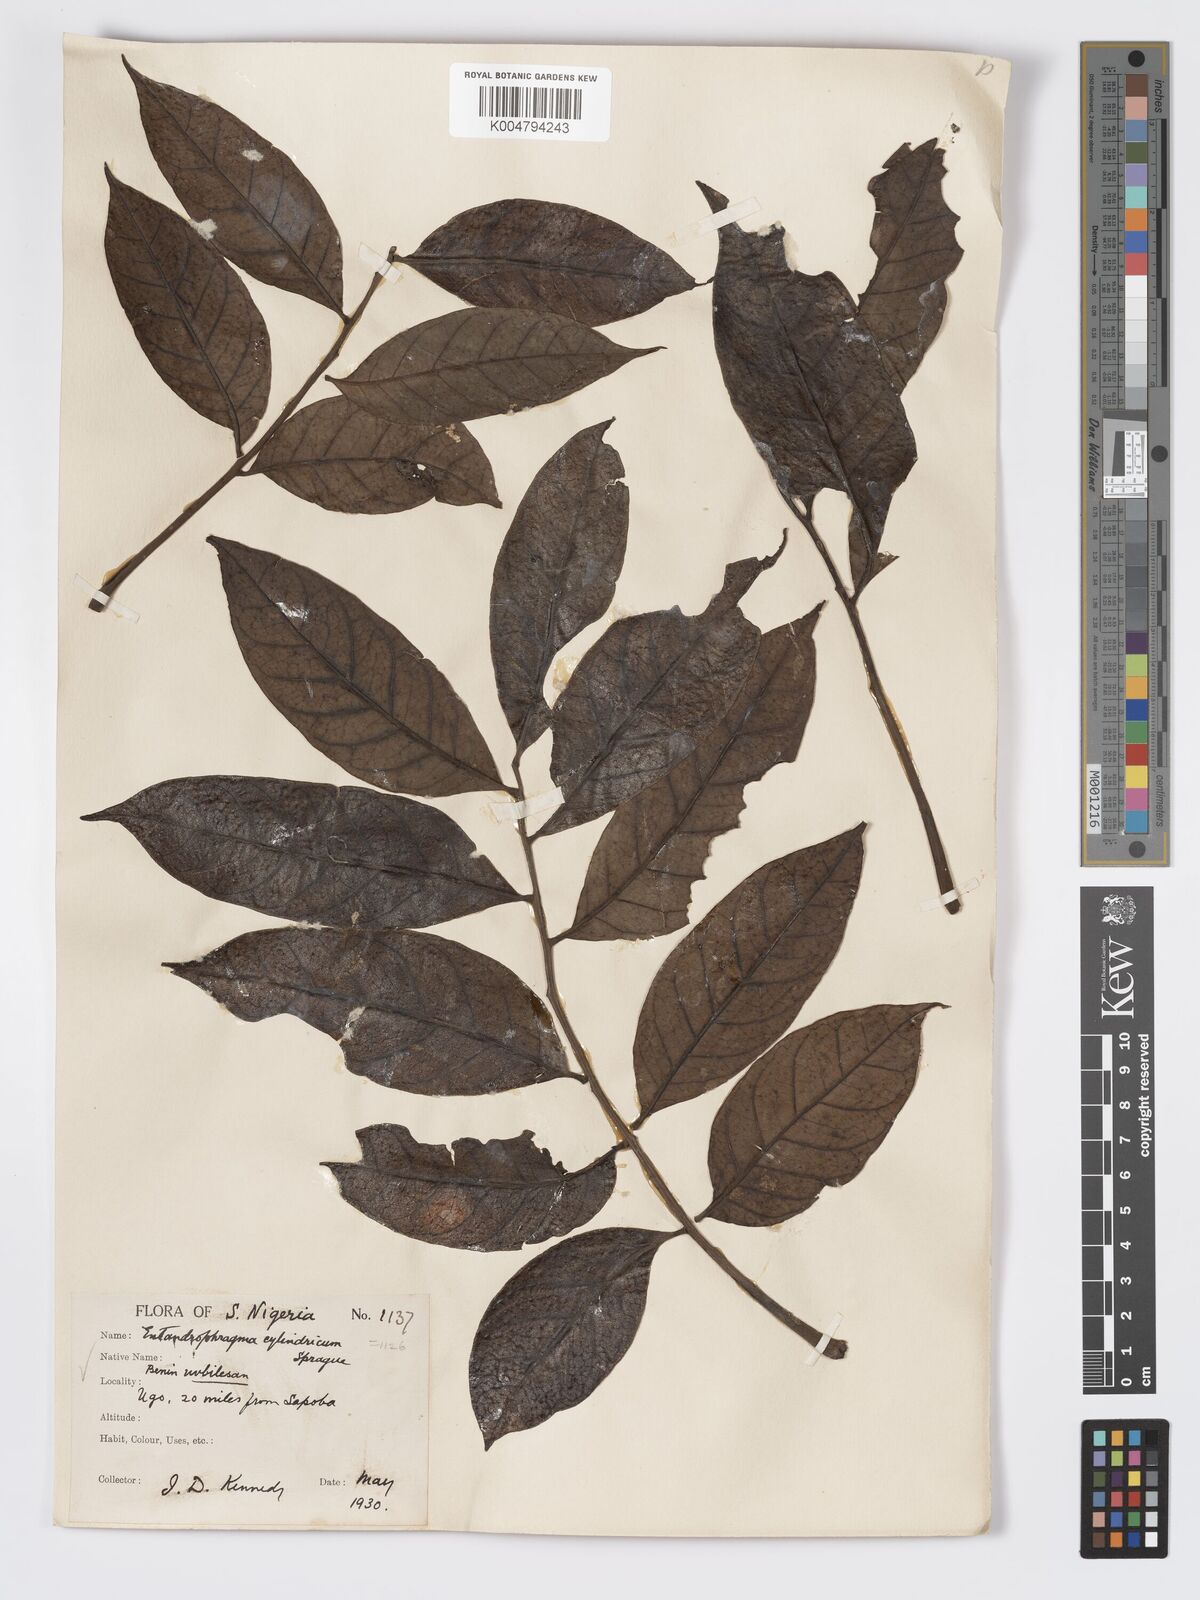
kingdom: Plantae
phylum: Tracheophyta
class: Magnoliopsida
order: Sapindales
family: Meliaceae
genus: Entandrophragma
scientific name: Entandrophragma cylindricum
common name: Sapele
